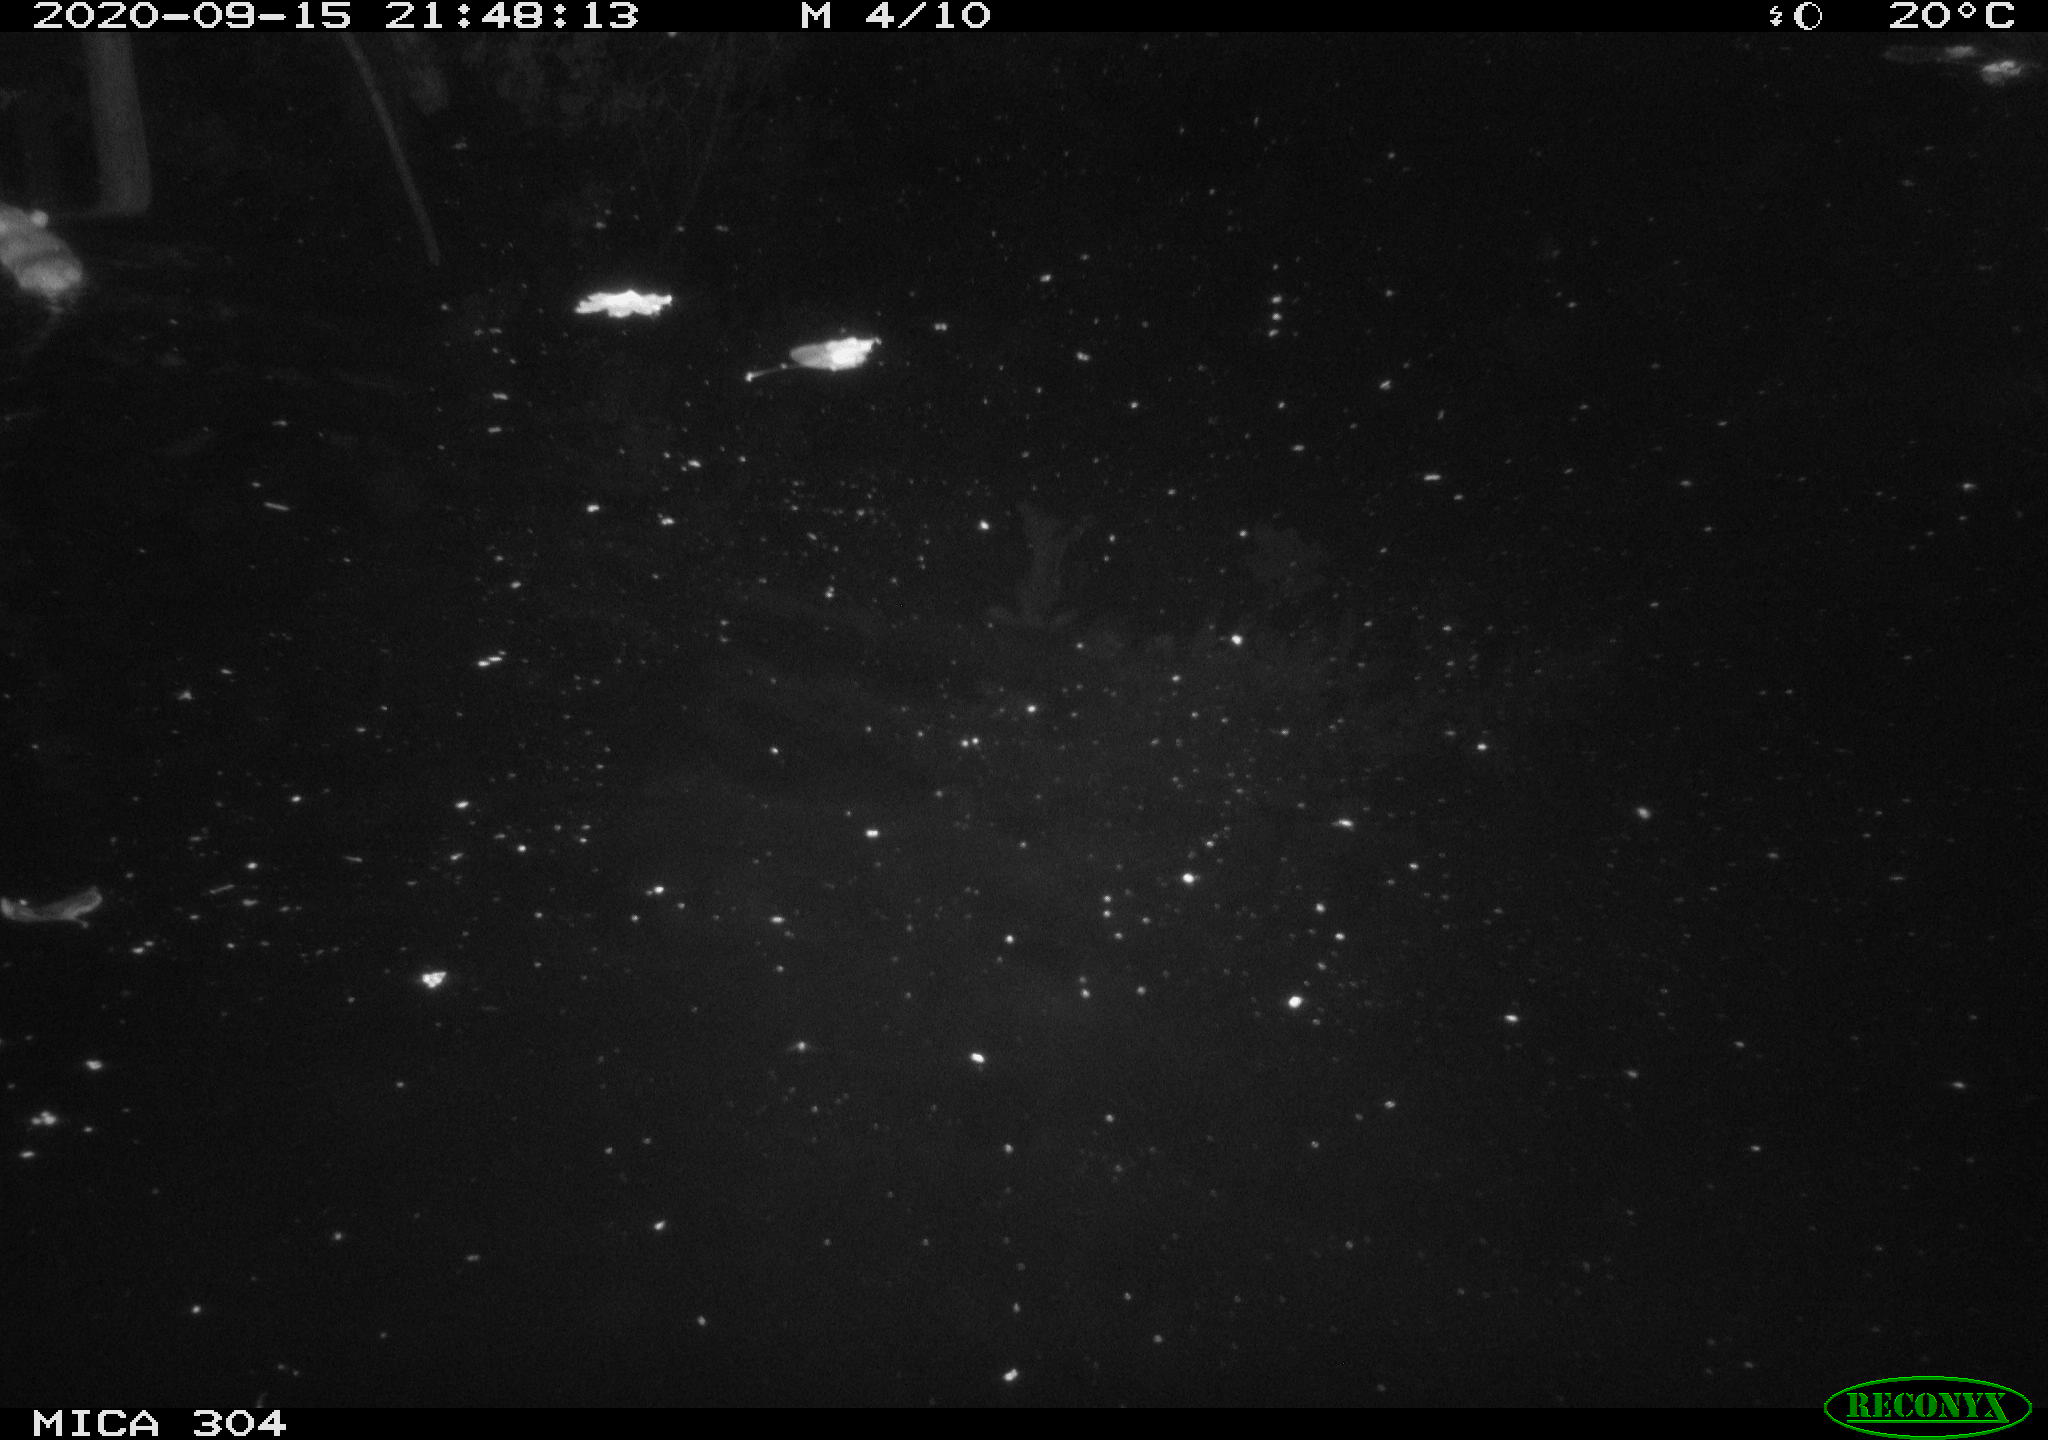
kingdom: Animalia
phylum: Chordata
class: Mammalia
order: Rodentia
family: Muridae
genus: Rattus
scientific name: Rattus norvegicus
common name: Brown rat
